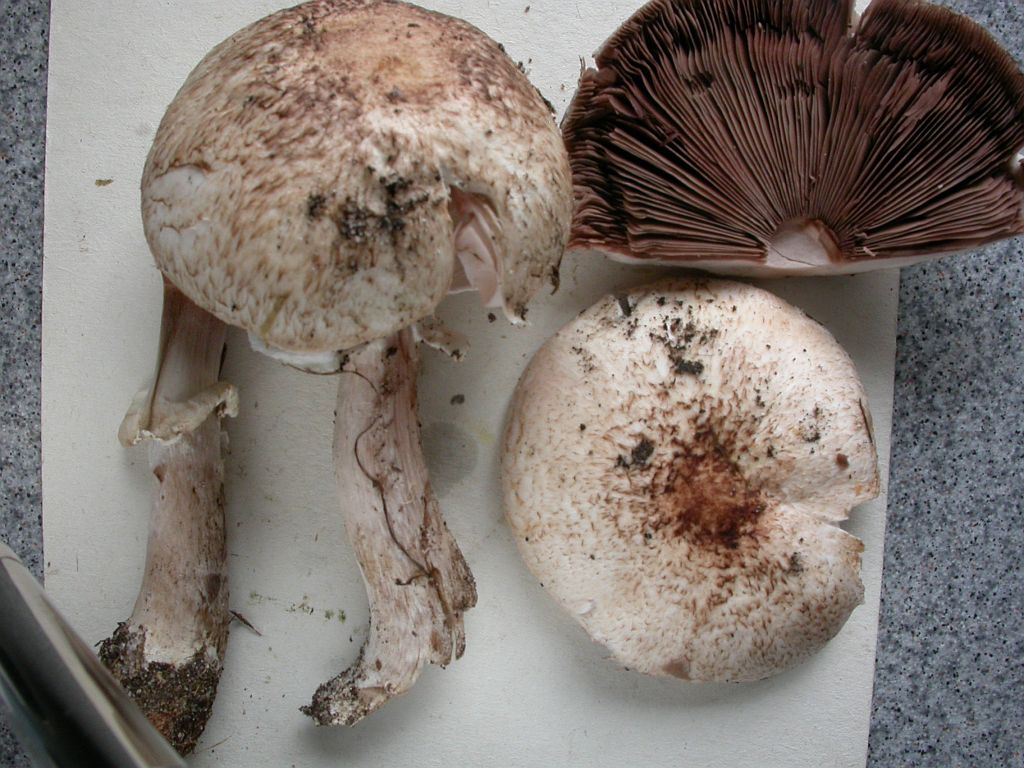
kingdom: Fungi
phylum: Basidiomycota
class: Agaricomycetes
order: Agaricales
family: Agaricaceae
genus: Agaricus
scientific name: Agaricus impudicus
